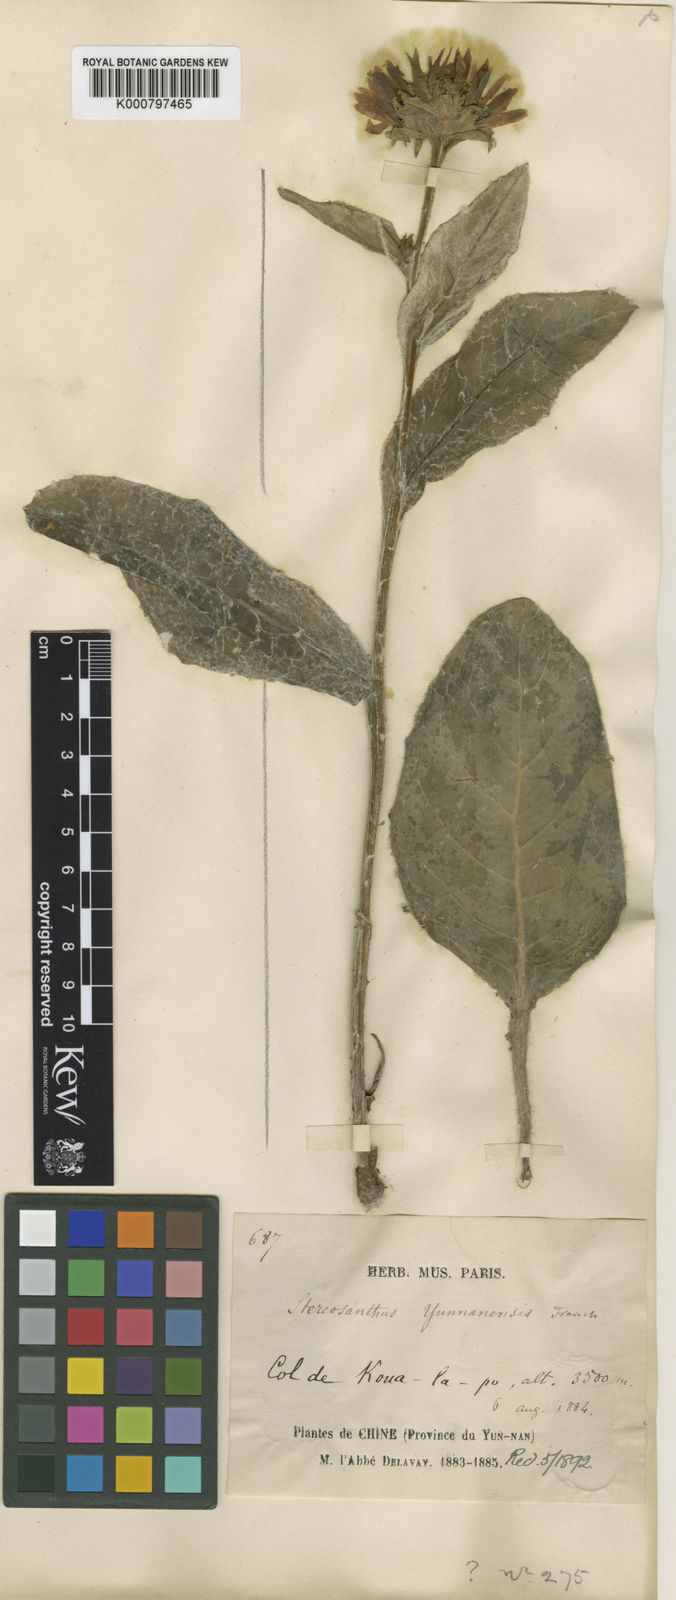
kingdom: Plantae
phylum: Tracheophyta
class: Magnoliopsida
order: Asterales
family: Asteraceae
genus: Nannoglottis
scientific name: Nannoglottis latisquama
